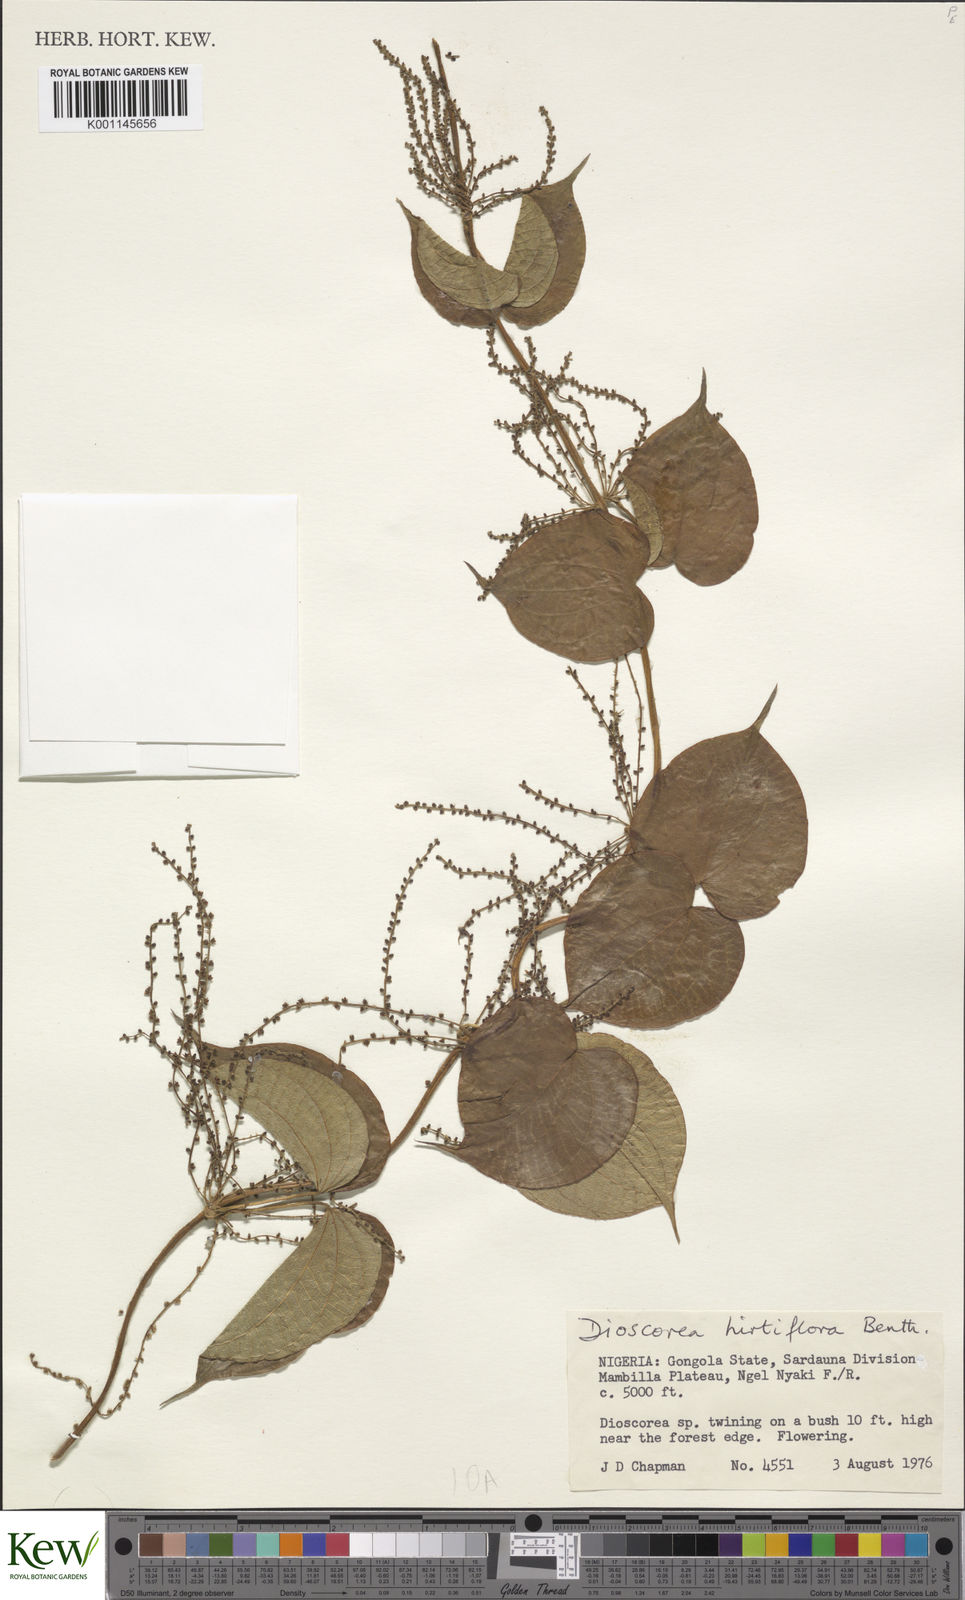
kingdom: Plantae
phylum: Tracheophyta
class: Liliopsida
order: Dioscoreales
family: Dioscoreaceae
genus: Dioscorea
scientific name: Dioscorea hirtiflora
